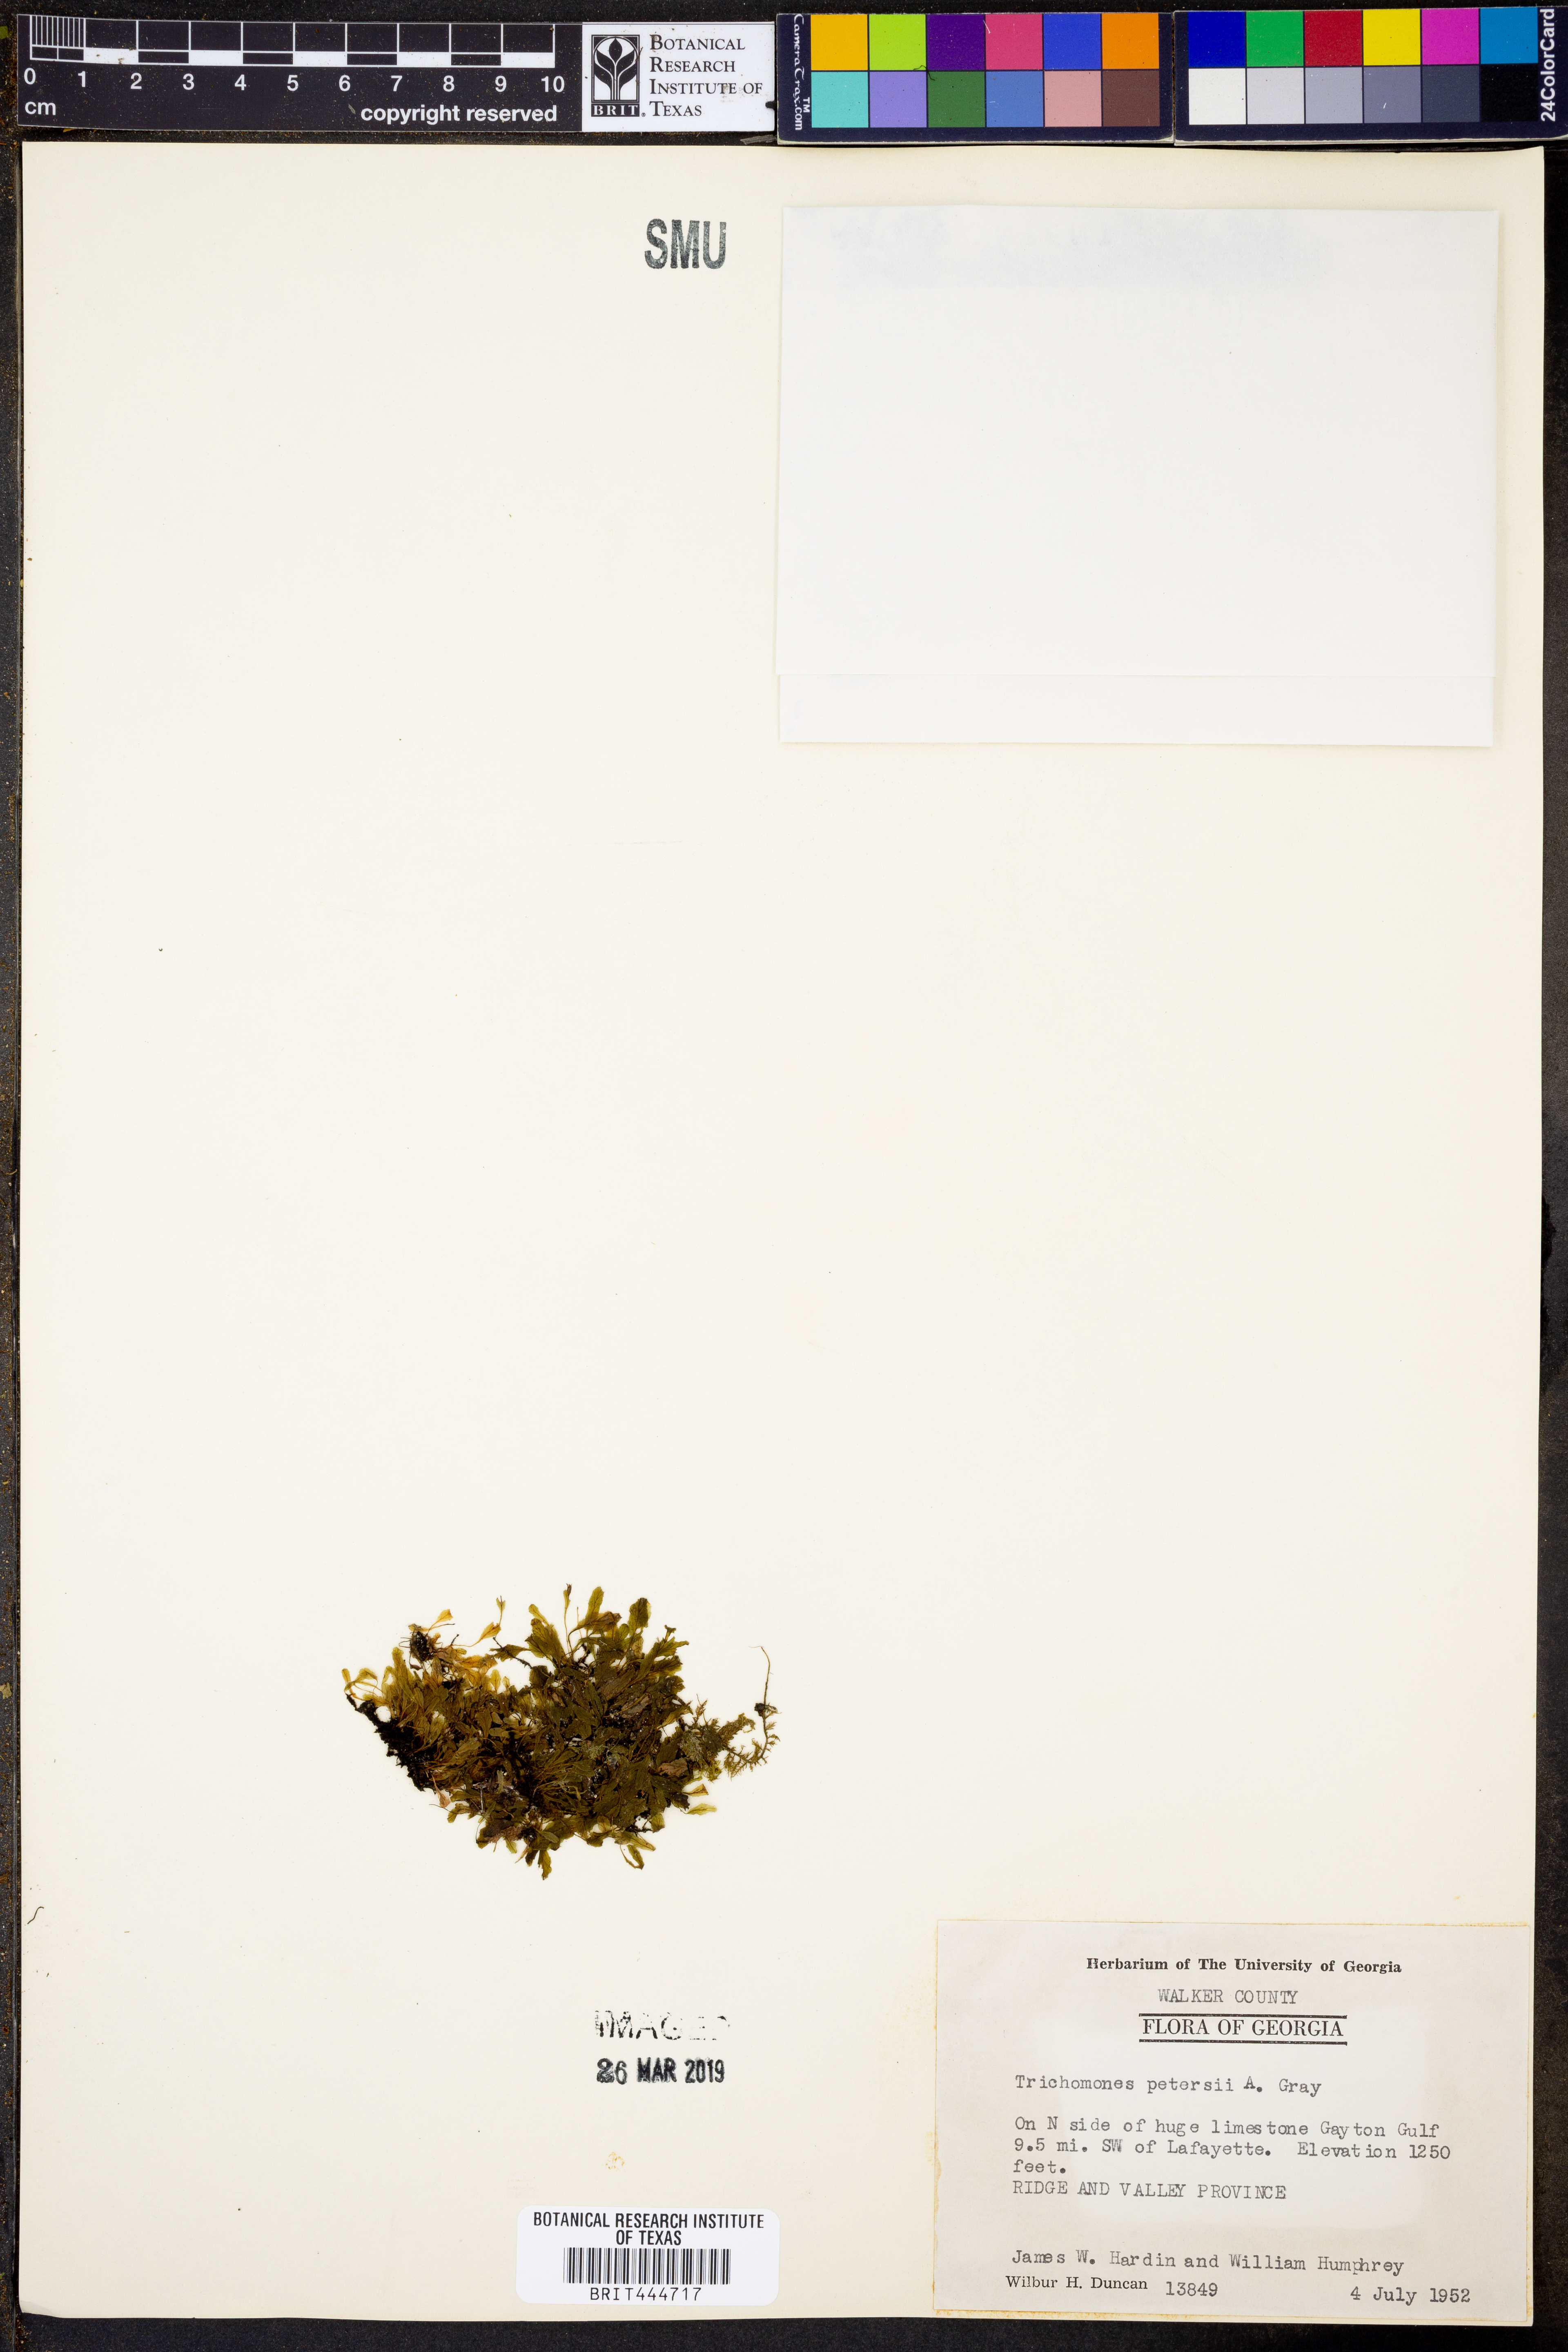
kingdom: Plantae
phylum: Tracheophyta
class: Polypodiopsida
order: Hymenophyllales
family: Hymenophyllaceae
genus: Didymoglossum
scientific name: Didymoglossum petersii
